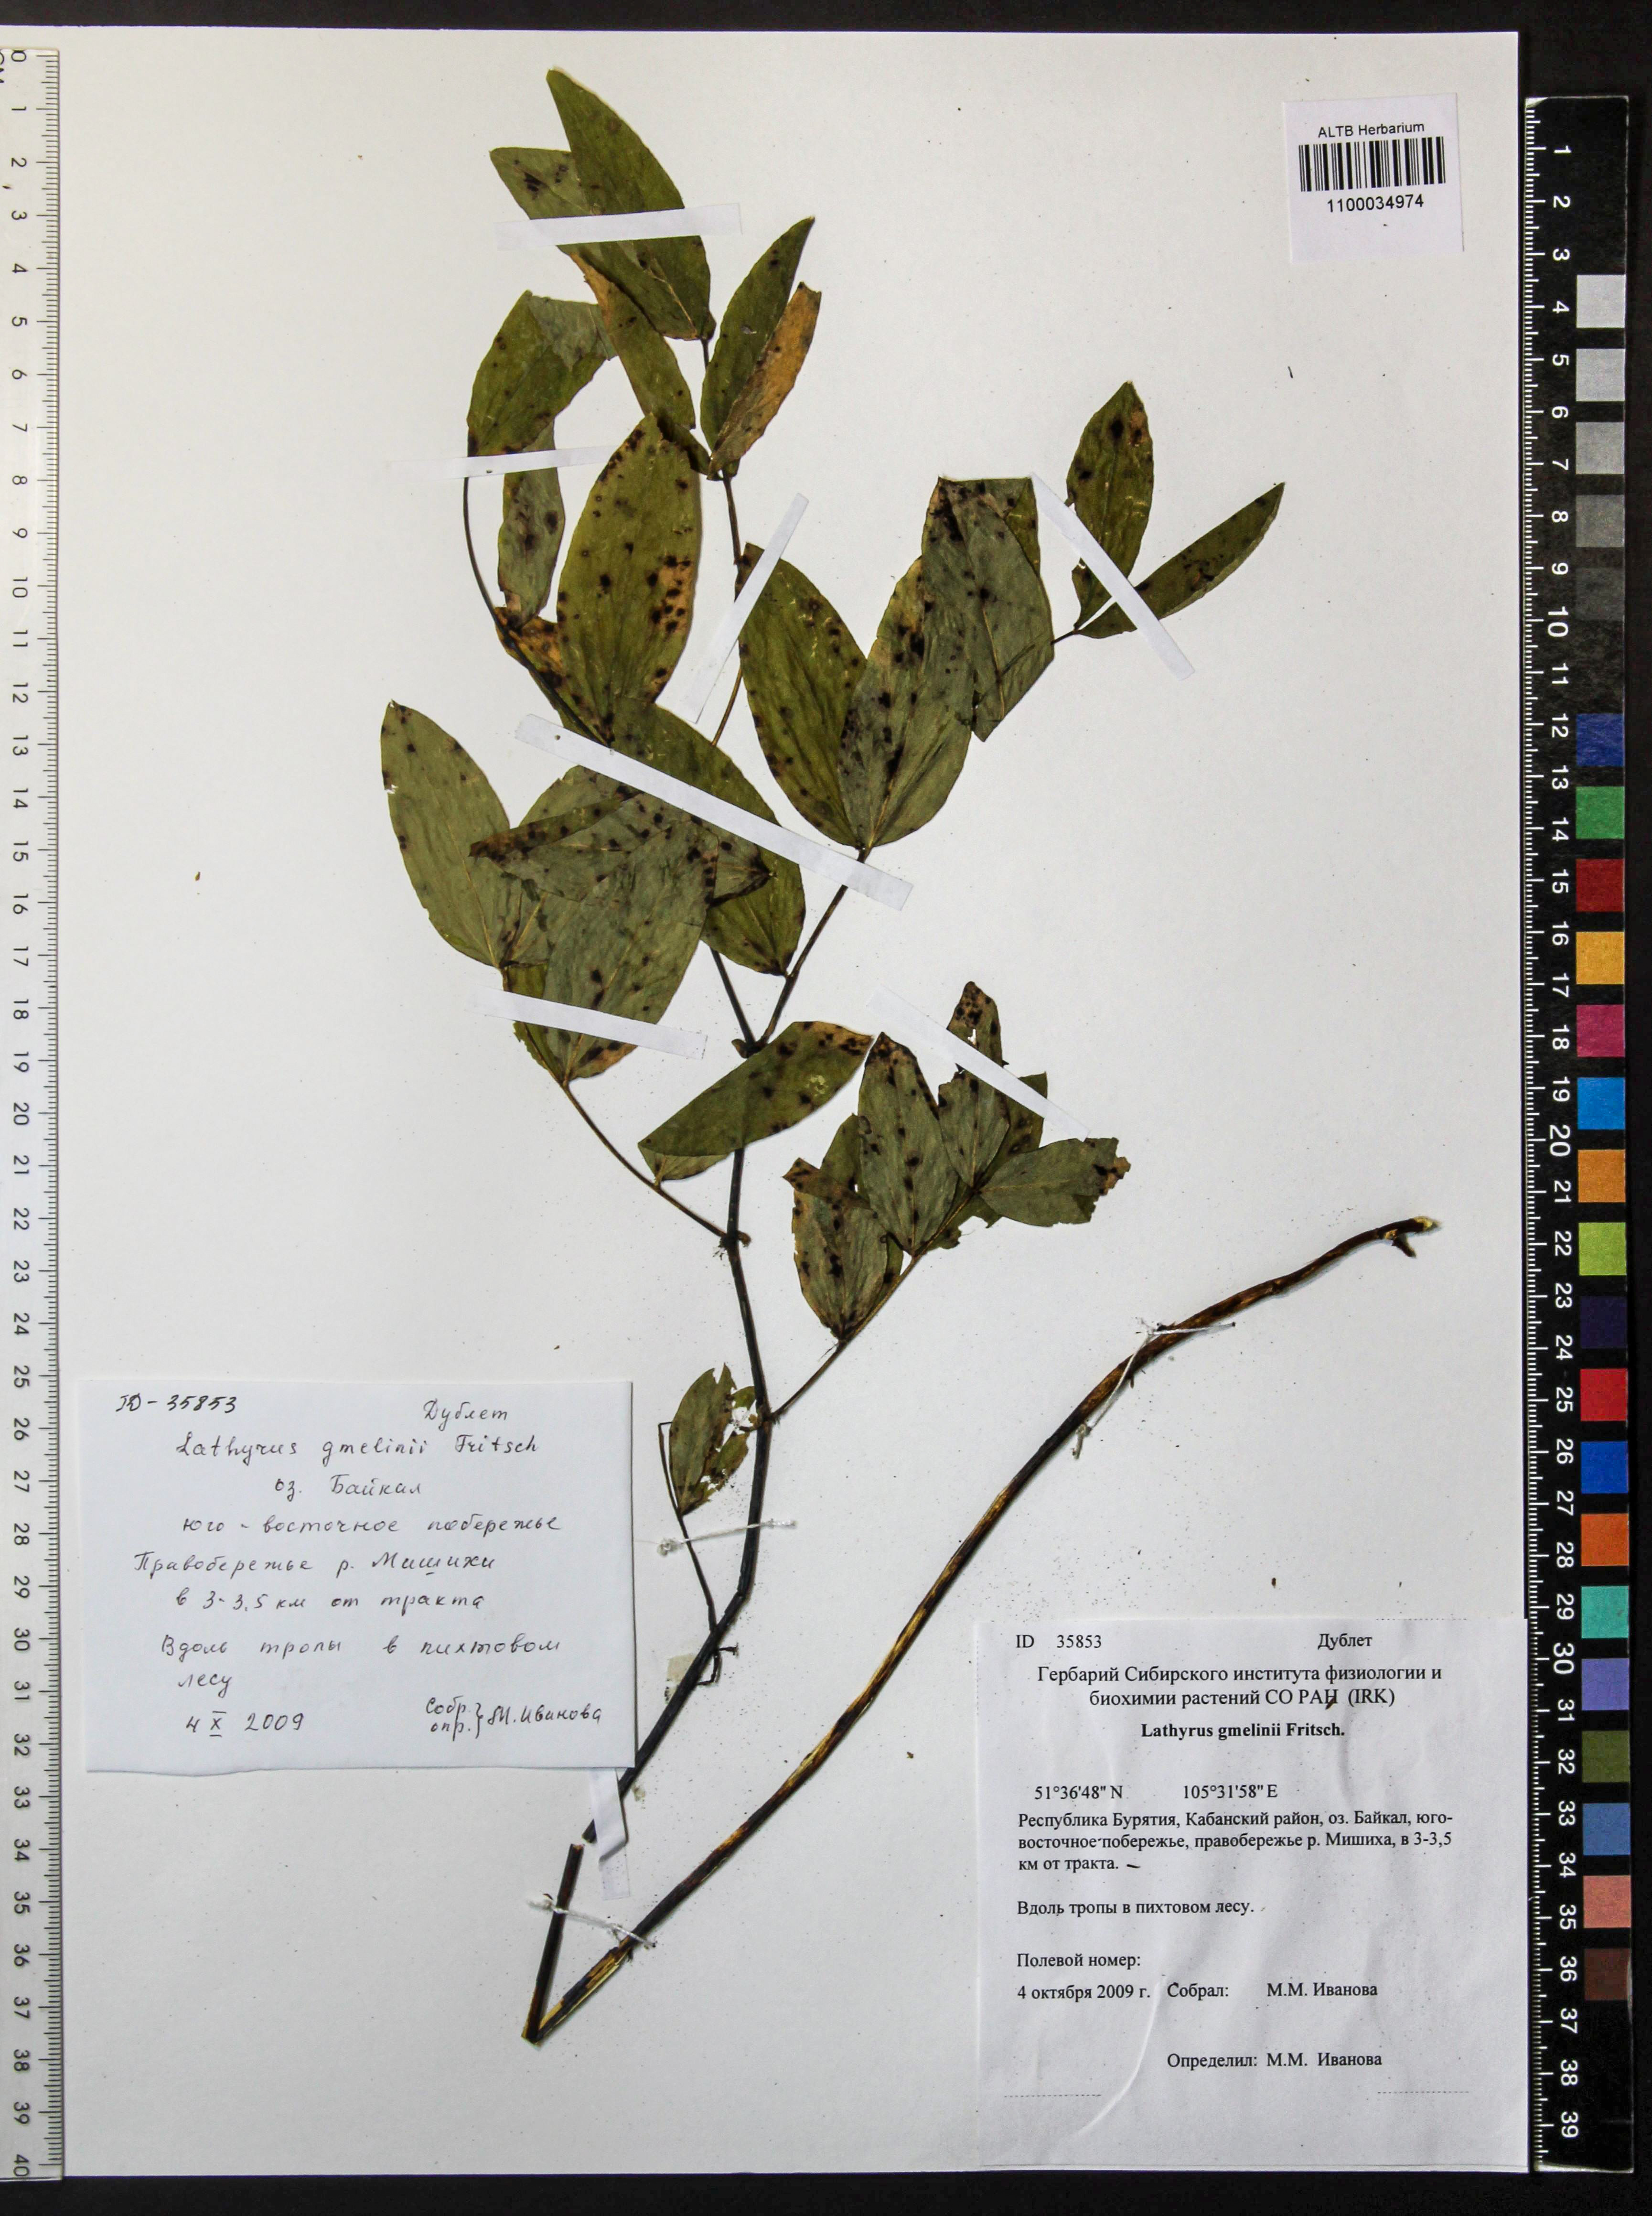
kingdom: Plantae
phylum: Tracheophyta
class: Magnoliopsida
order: Fabales
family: Fabaceae
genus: Lathyrus
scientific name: Lathyrus gmelinii
